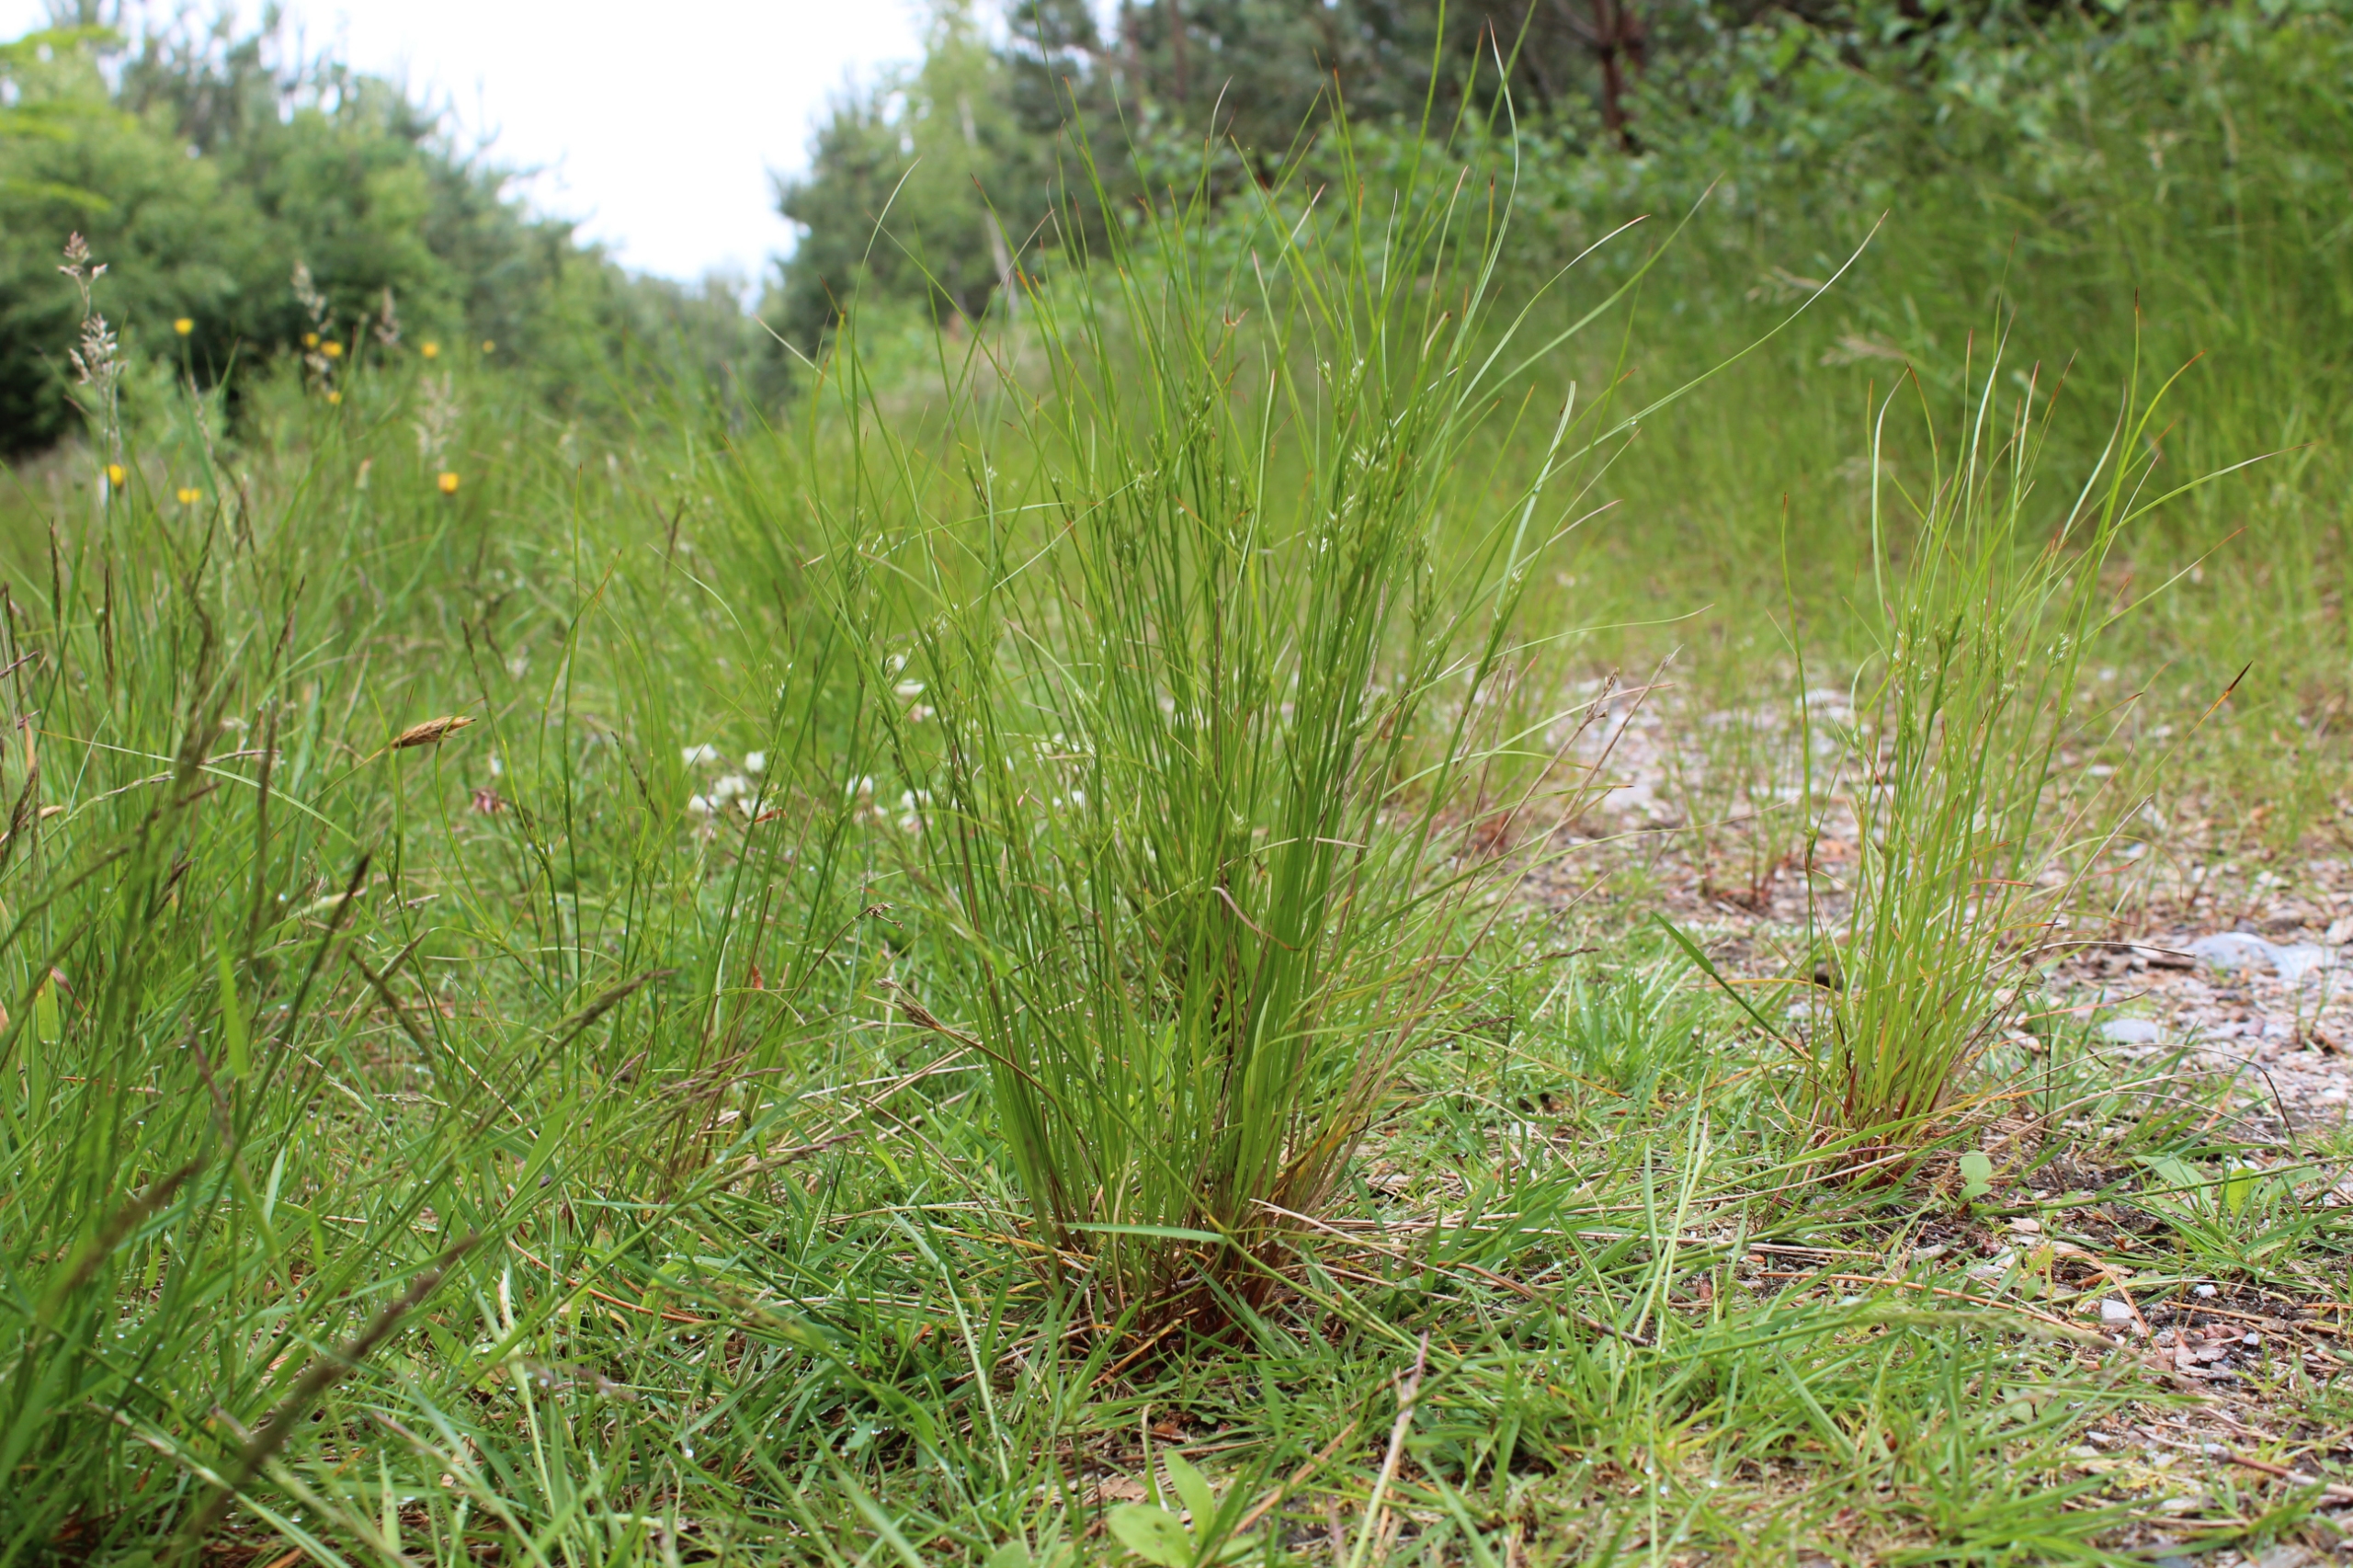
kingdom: Plantae
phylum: Tracheophyta
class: Liliopsida
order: Poales
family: Juncaceae
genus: Juncus
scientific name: Juncus tenuis
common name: Tue-siv
